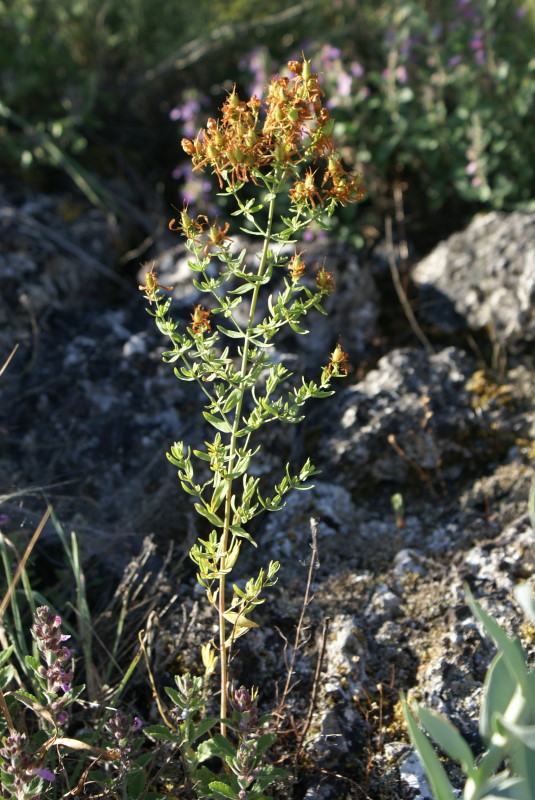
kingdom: Plantae
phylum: Tracheophyta
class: Magnoliopsida
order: Malpighiales
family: Hypericaceae
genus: Hypericum
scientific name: Hypericum perforatum
